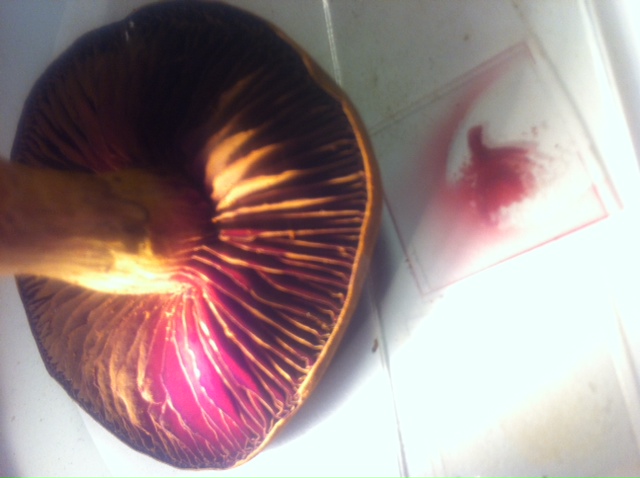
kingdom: Fungi
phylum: Basidiomycota
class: Agaricomycetes
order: Agaricales
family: Cortinariaceae
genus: Cortinarius
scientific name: Cortinarius
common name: cinnoberbladet slørhat
